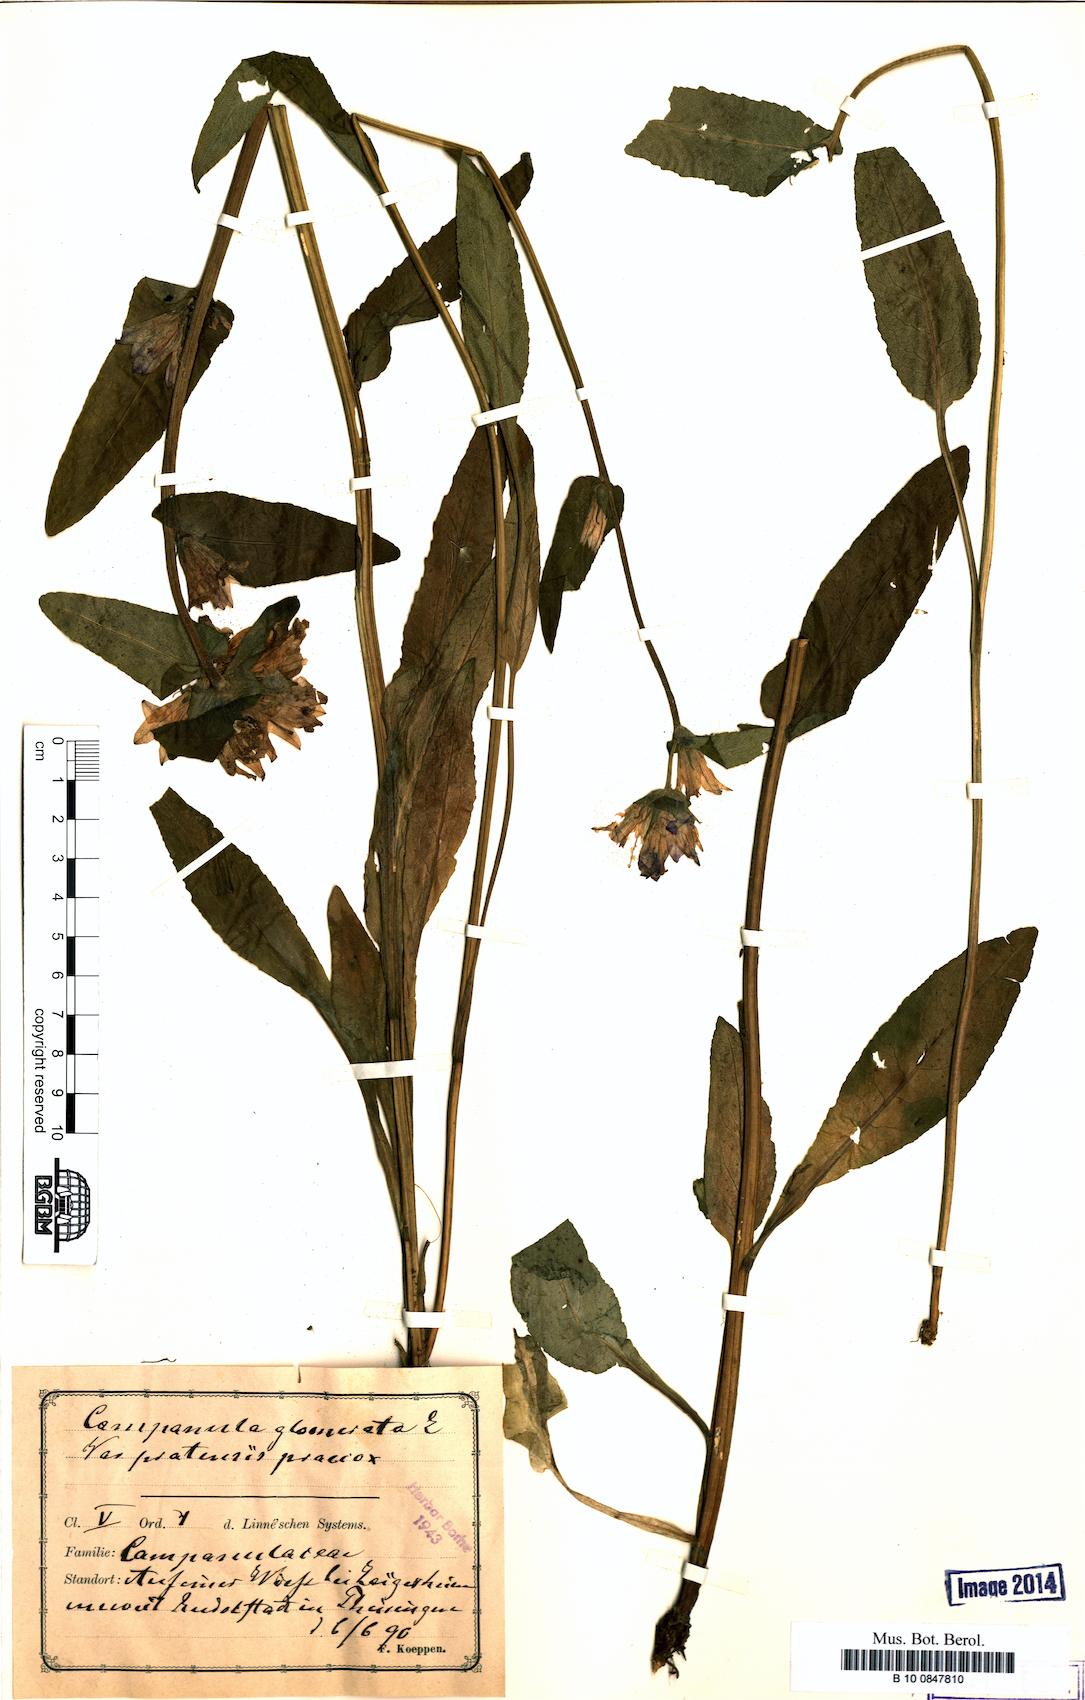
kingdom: Plantae
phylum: Tracheophyta
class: Magnoliopsida
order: Asterales
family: Campanulaceae
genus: Campanula
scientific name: Campanula glomerata
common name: Clustered bellflower
